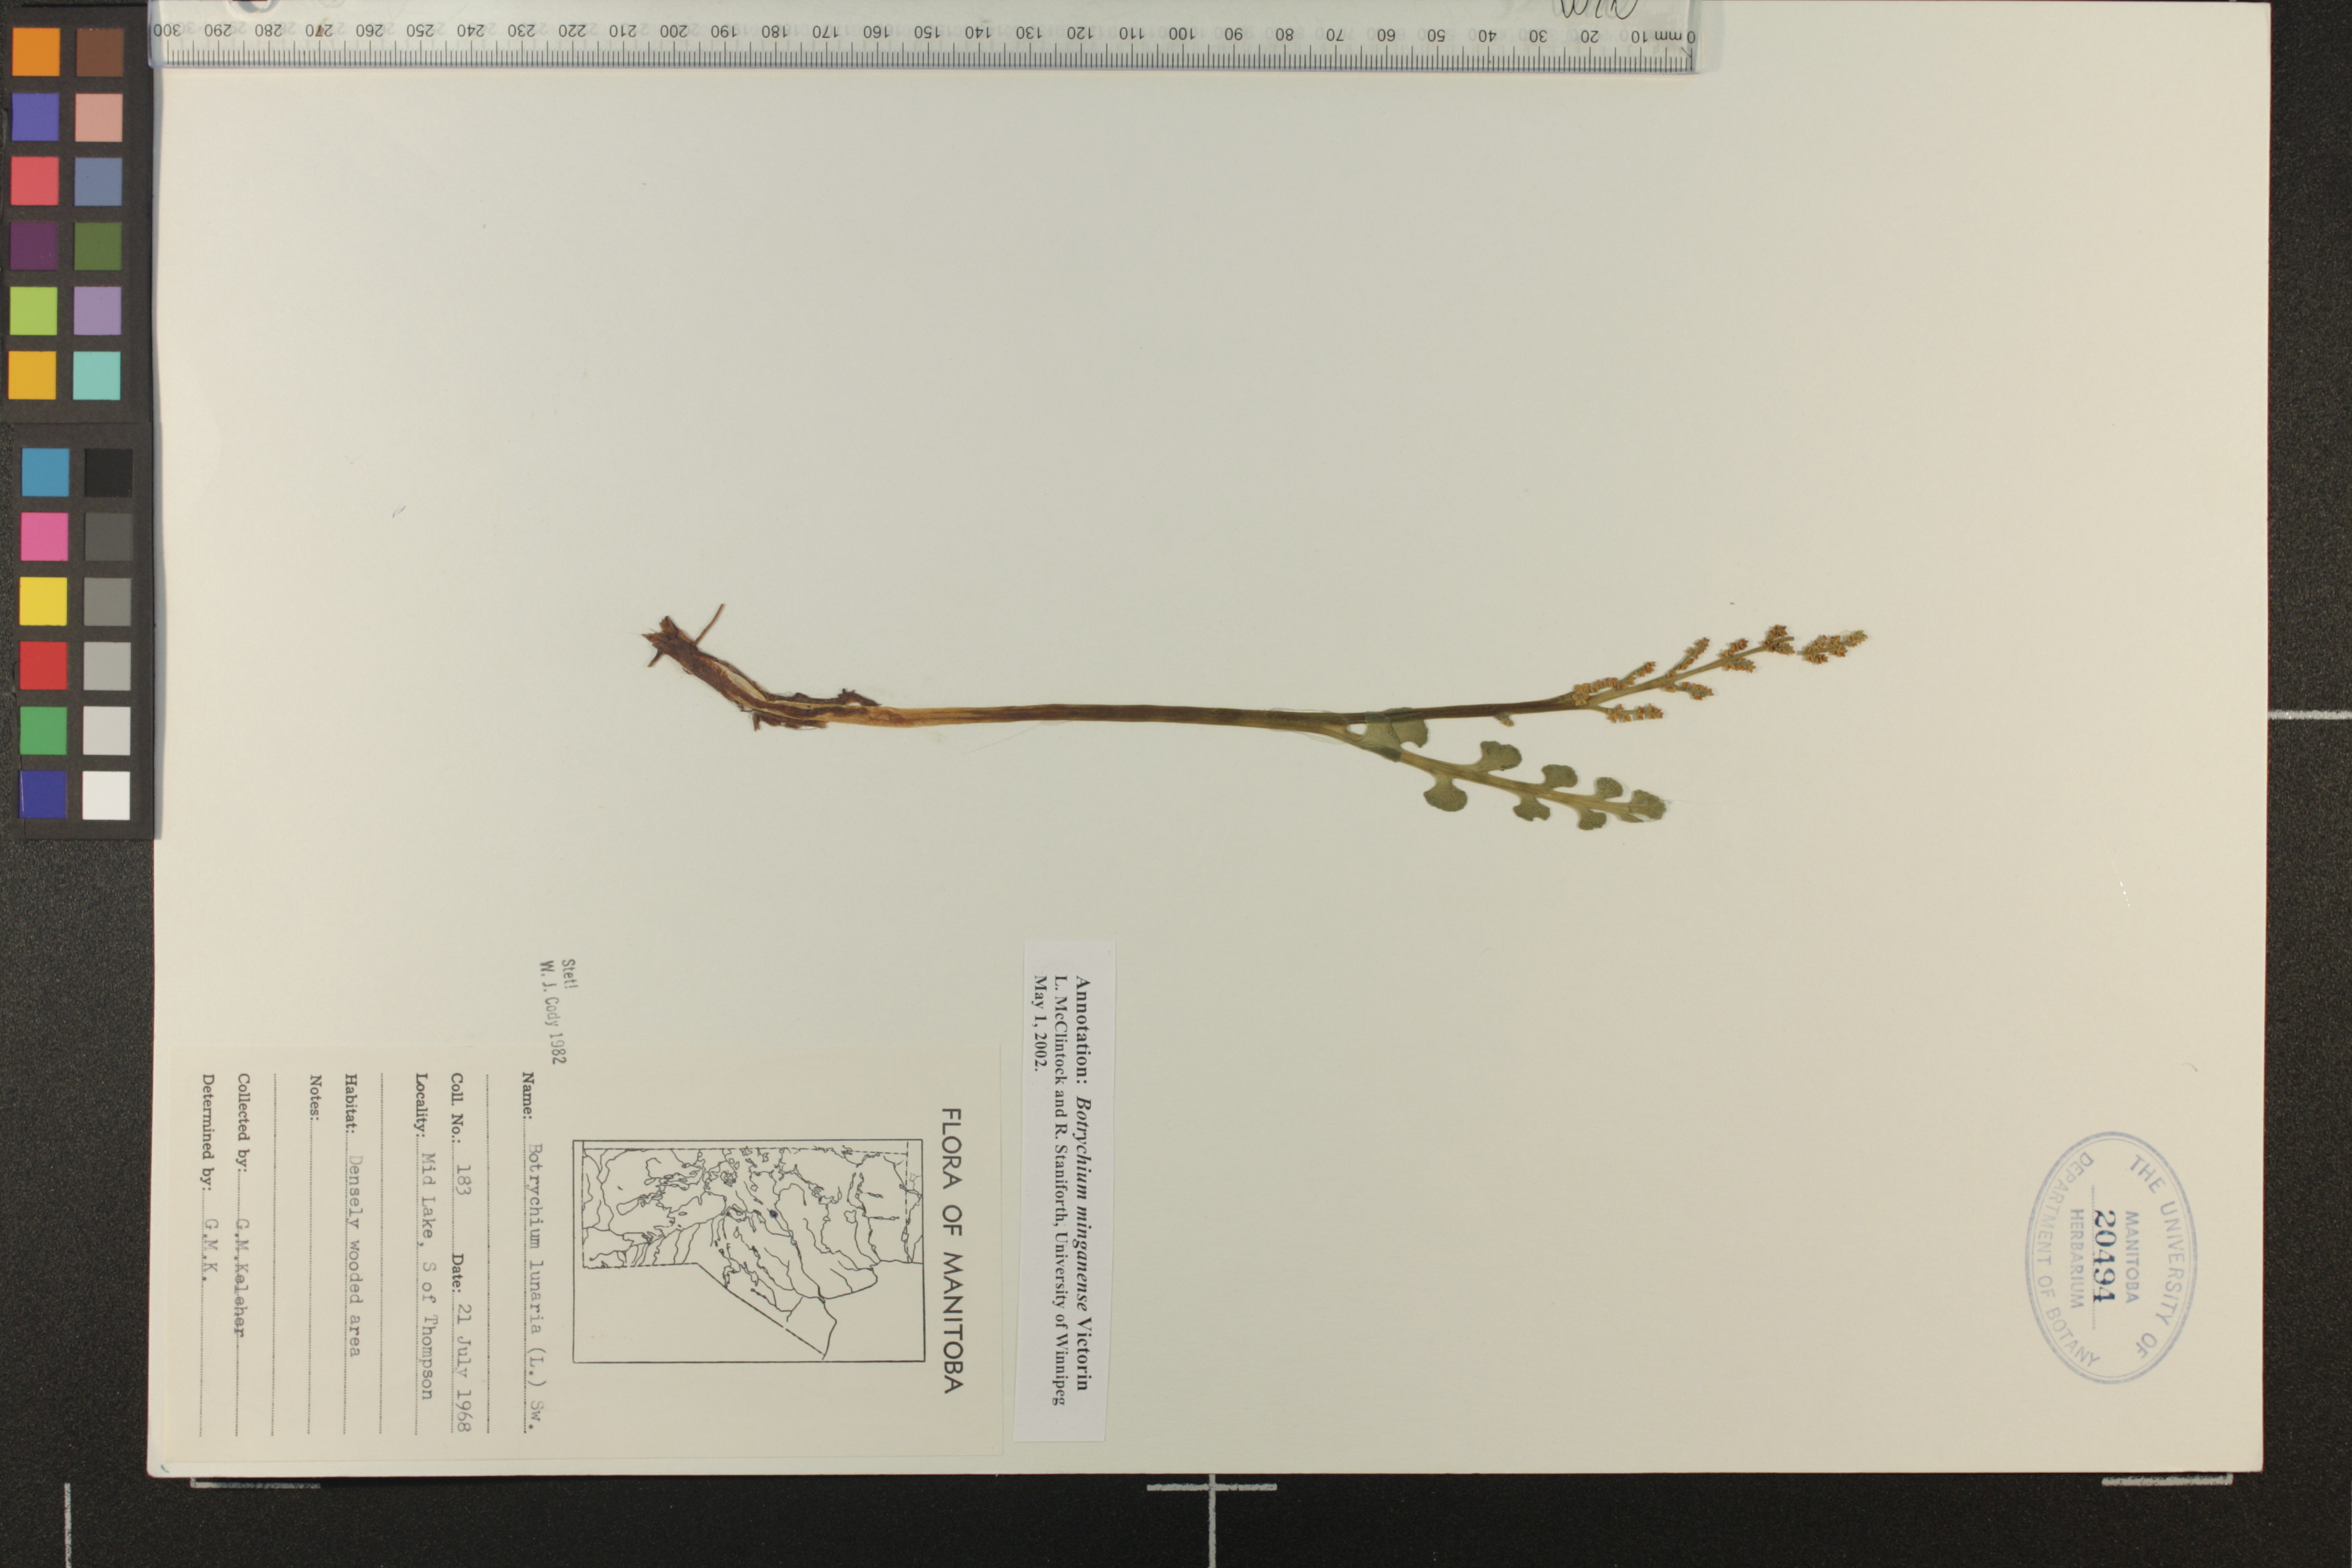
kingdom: Plantae
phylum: Tracheophyta
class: Polypodiopsida
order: Ophioglossales
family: Ophioglossaceae
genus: Botrychium
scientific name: Botrychium minganense
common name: Mingan grapefern
